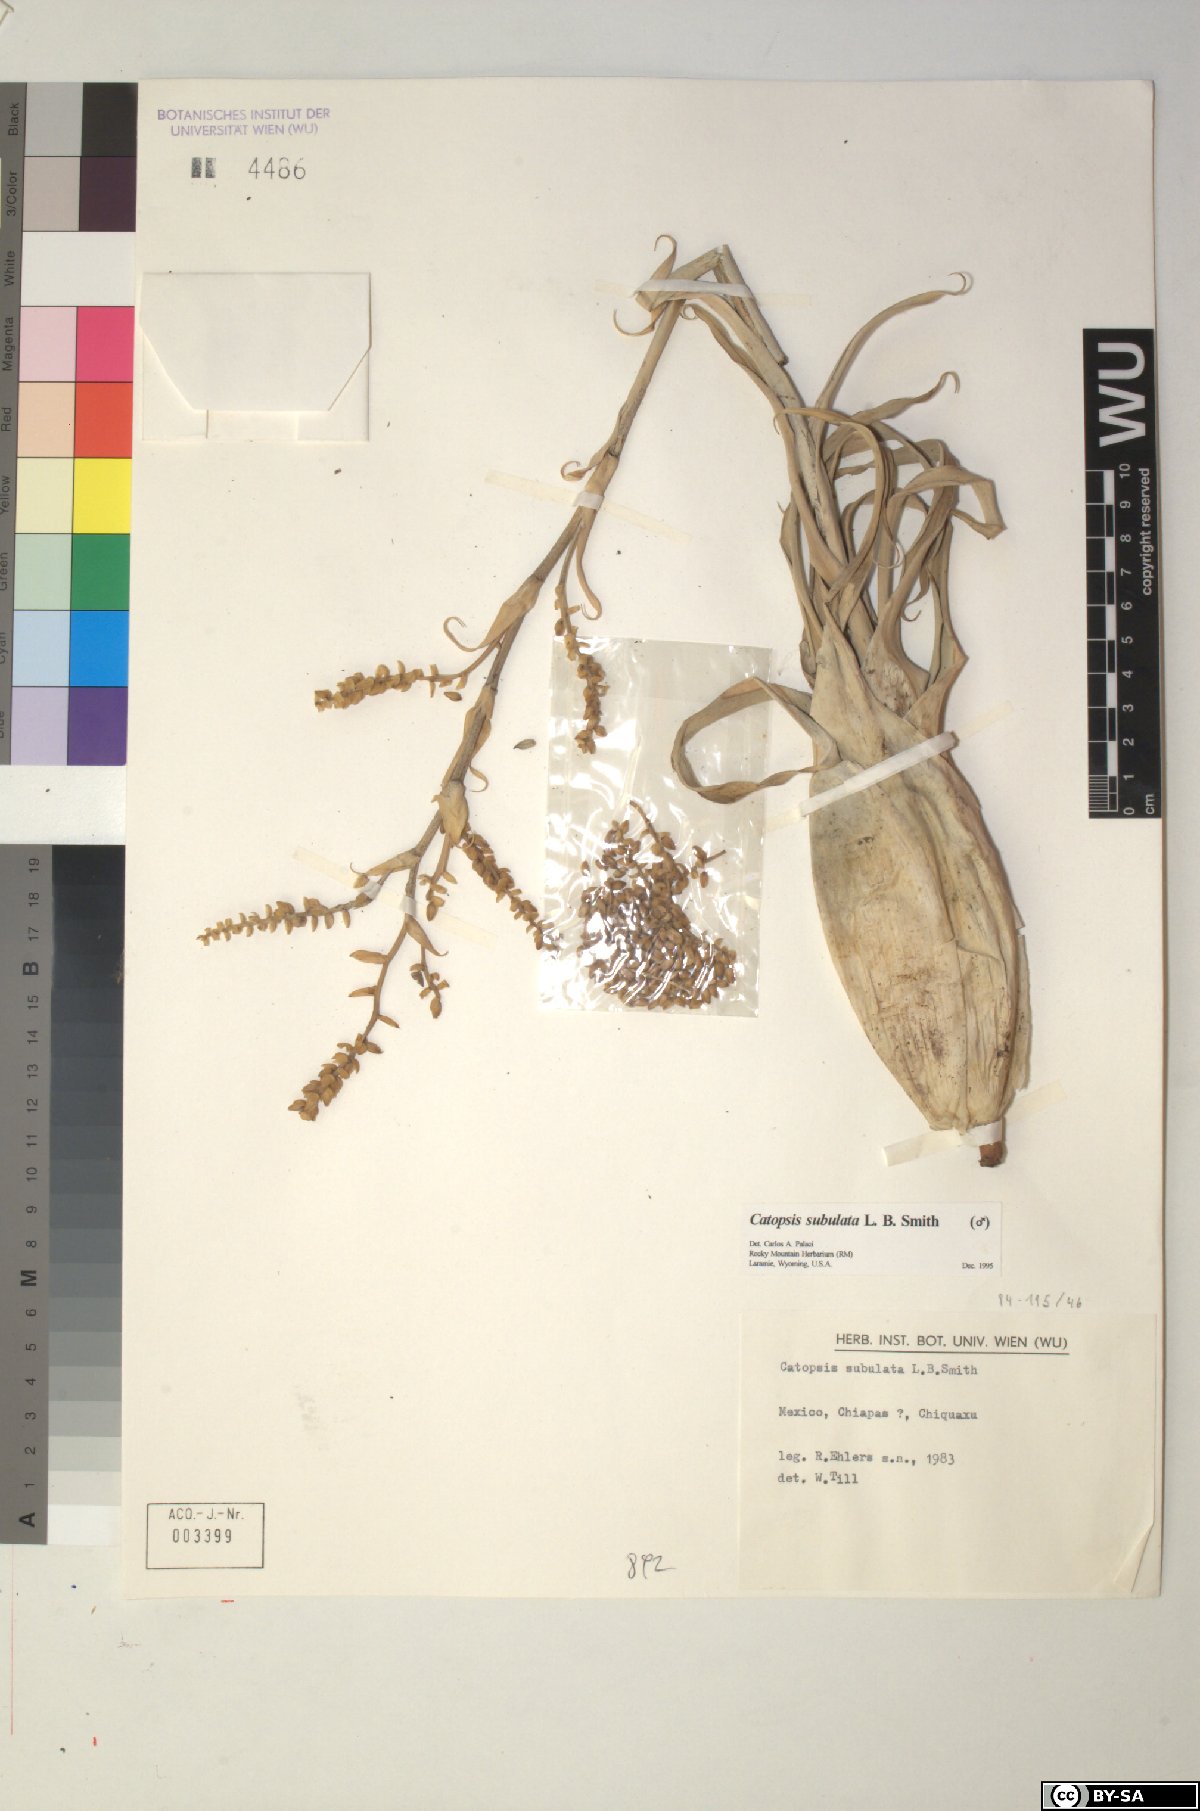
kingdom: Plantae
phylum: Tracheophyta
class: Liliopsida
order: Poales
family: Bromeliaceae
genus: Catopsis
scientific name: Catopsis subulata
